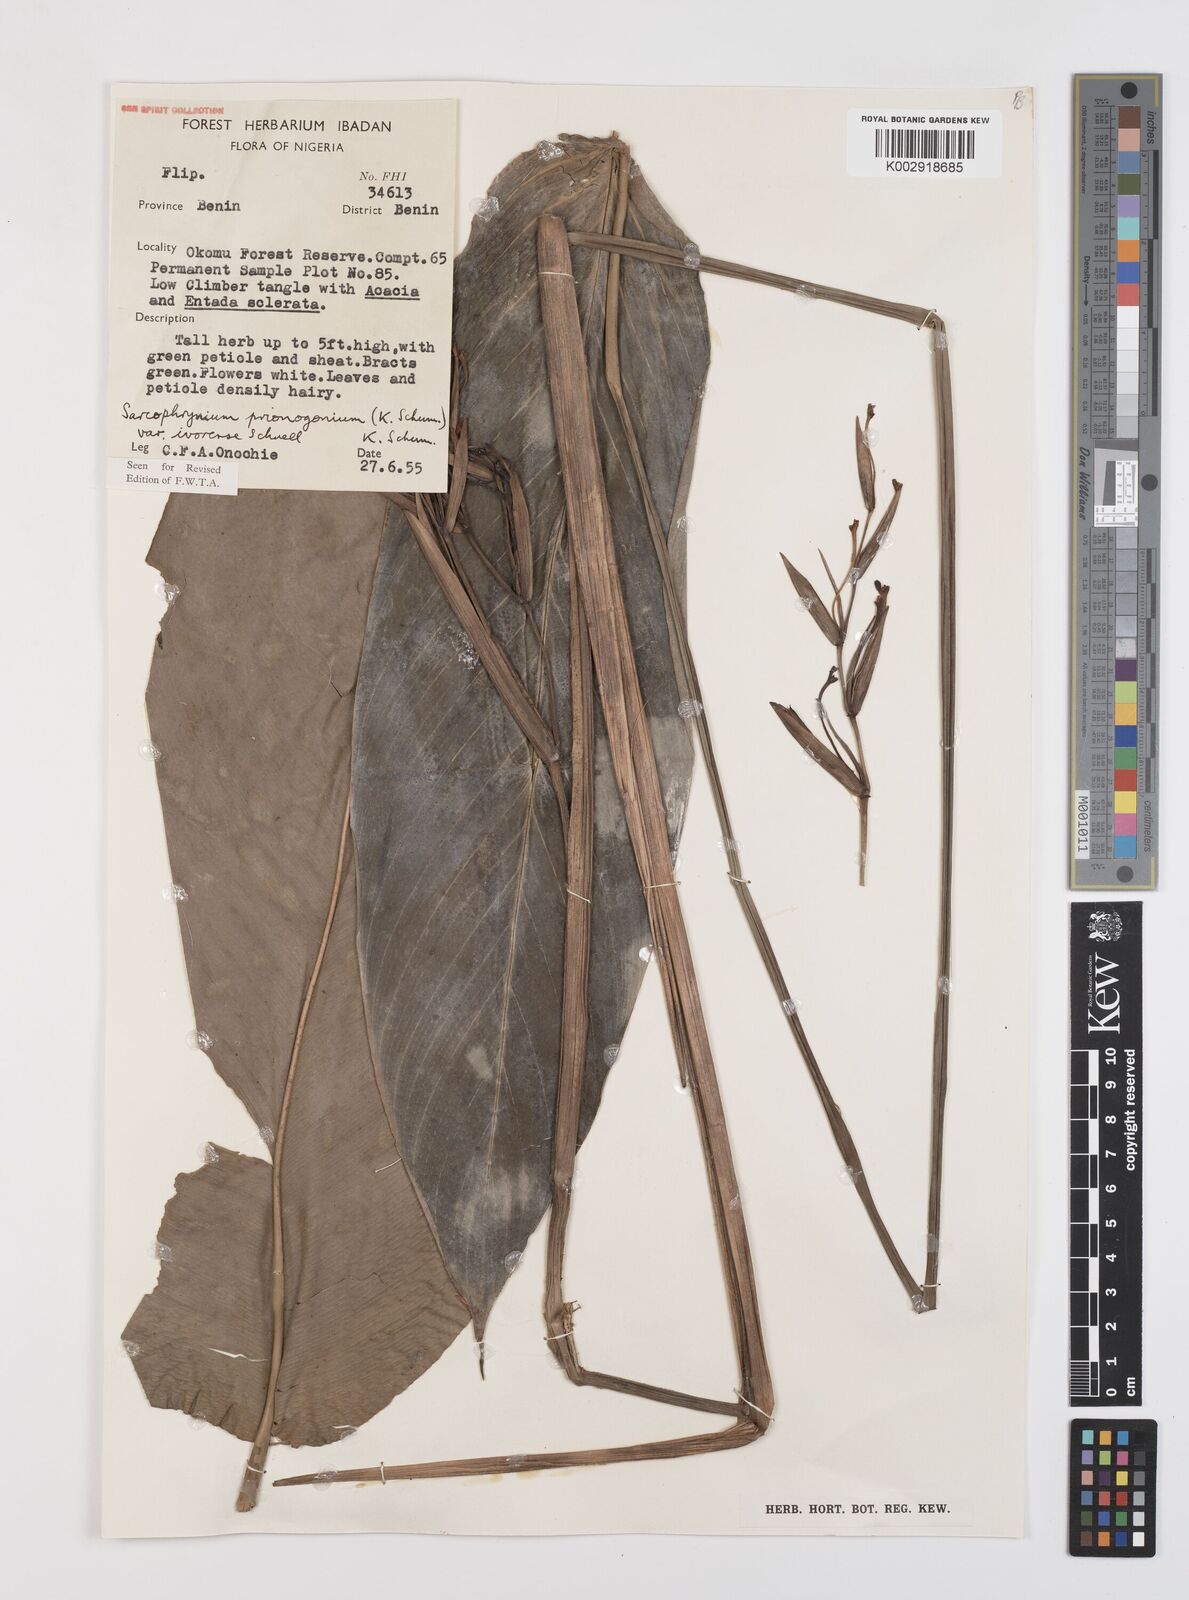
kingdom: Plantae
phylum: Tracheophyta
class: Liliopsida
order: Zingiberales
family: Marantaceae
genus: Sarcophrynium
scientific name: Sarcophrynium prionogonium
